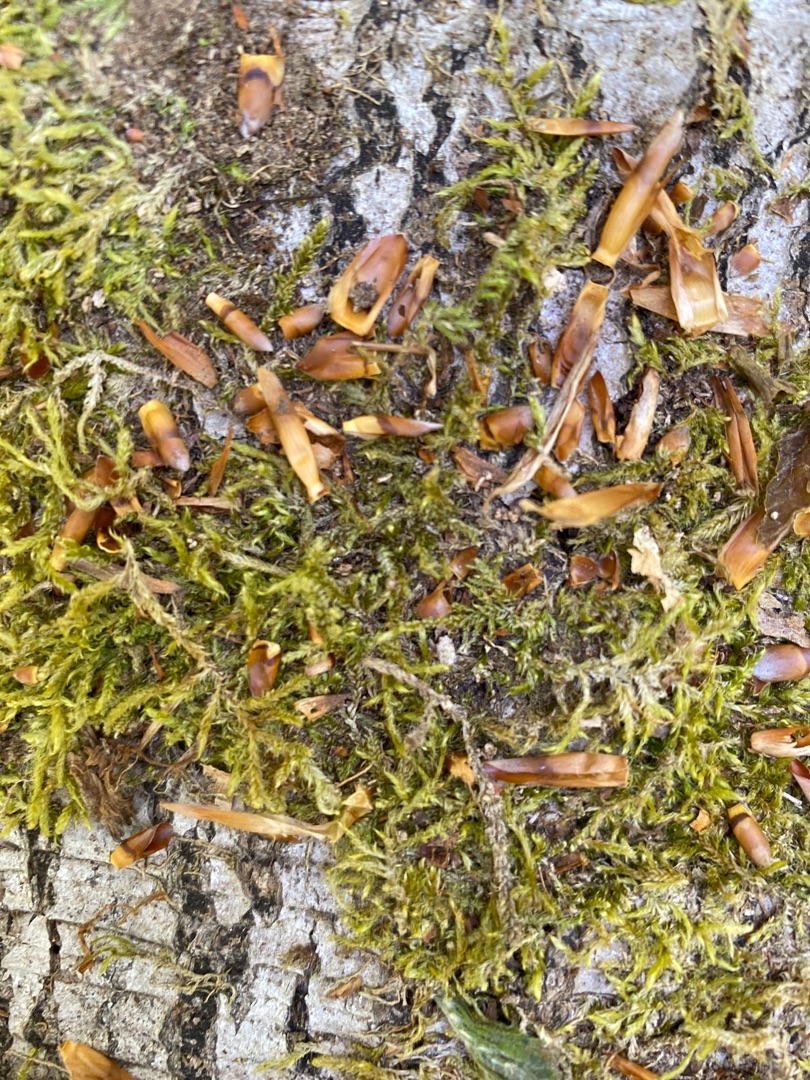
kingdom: Plantae
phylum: Bryophyta
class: Bryopsida
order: Hypnales
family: Hypnaceae
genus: Hypnum
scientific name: Hypnum cupressiforme
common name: Almindelig cypresmos
